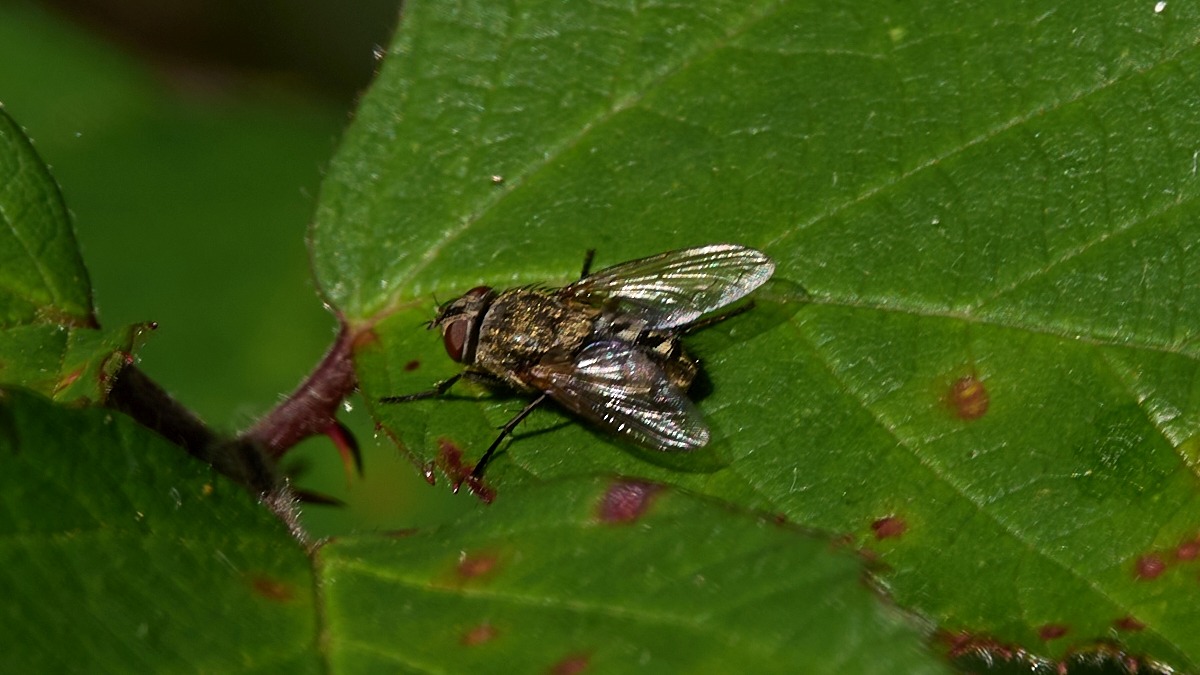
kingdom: Animalia
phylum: Arthropoda
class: Insecta
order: Diptera
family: Polleniidae
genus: Pollenia
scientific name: Pollenia
